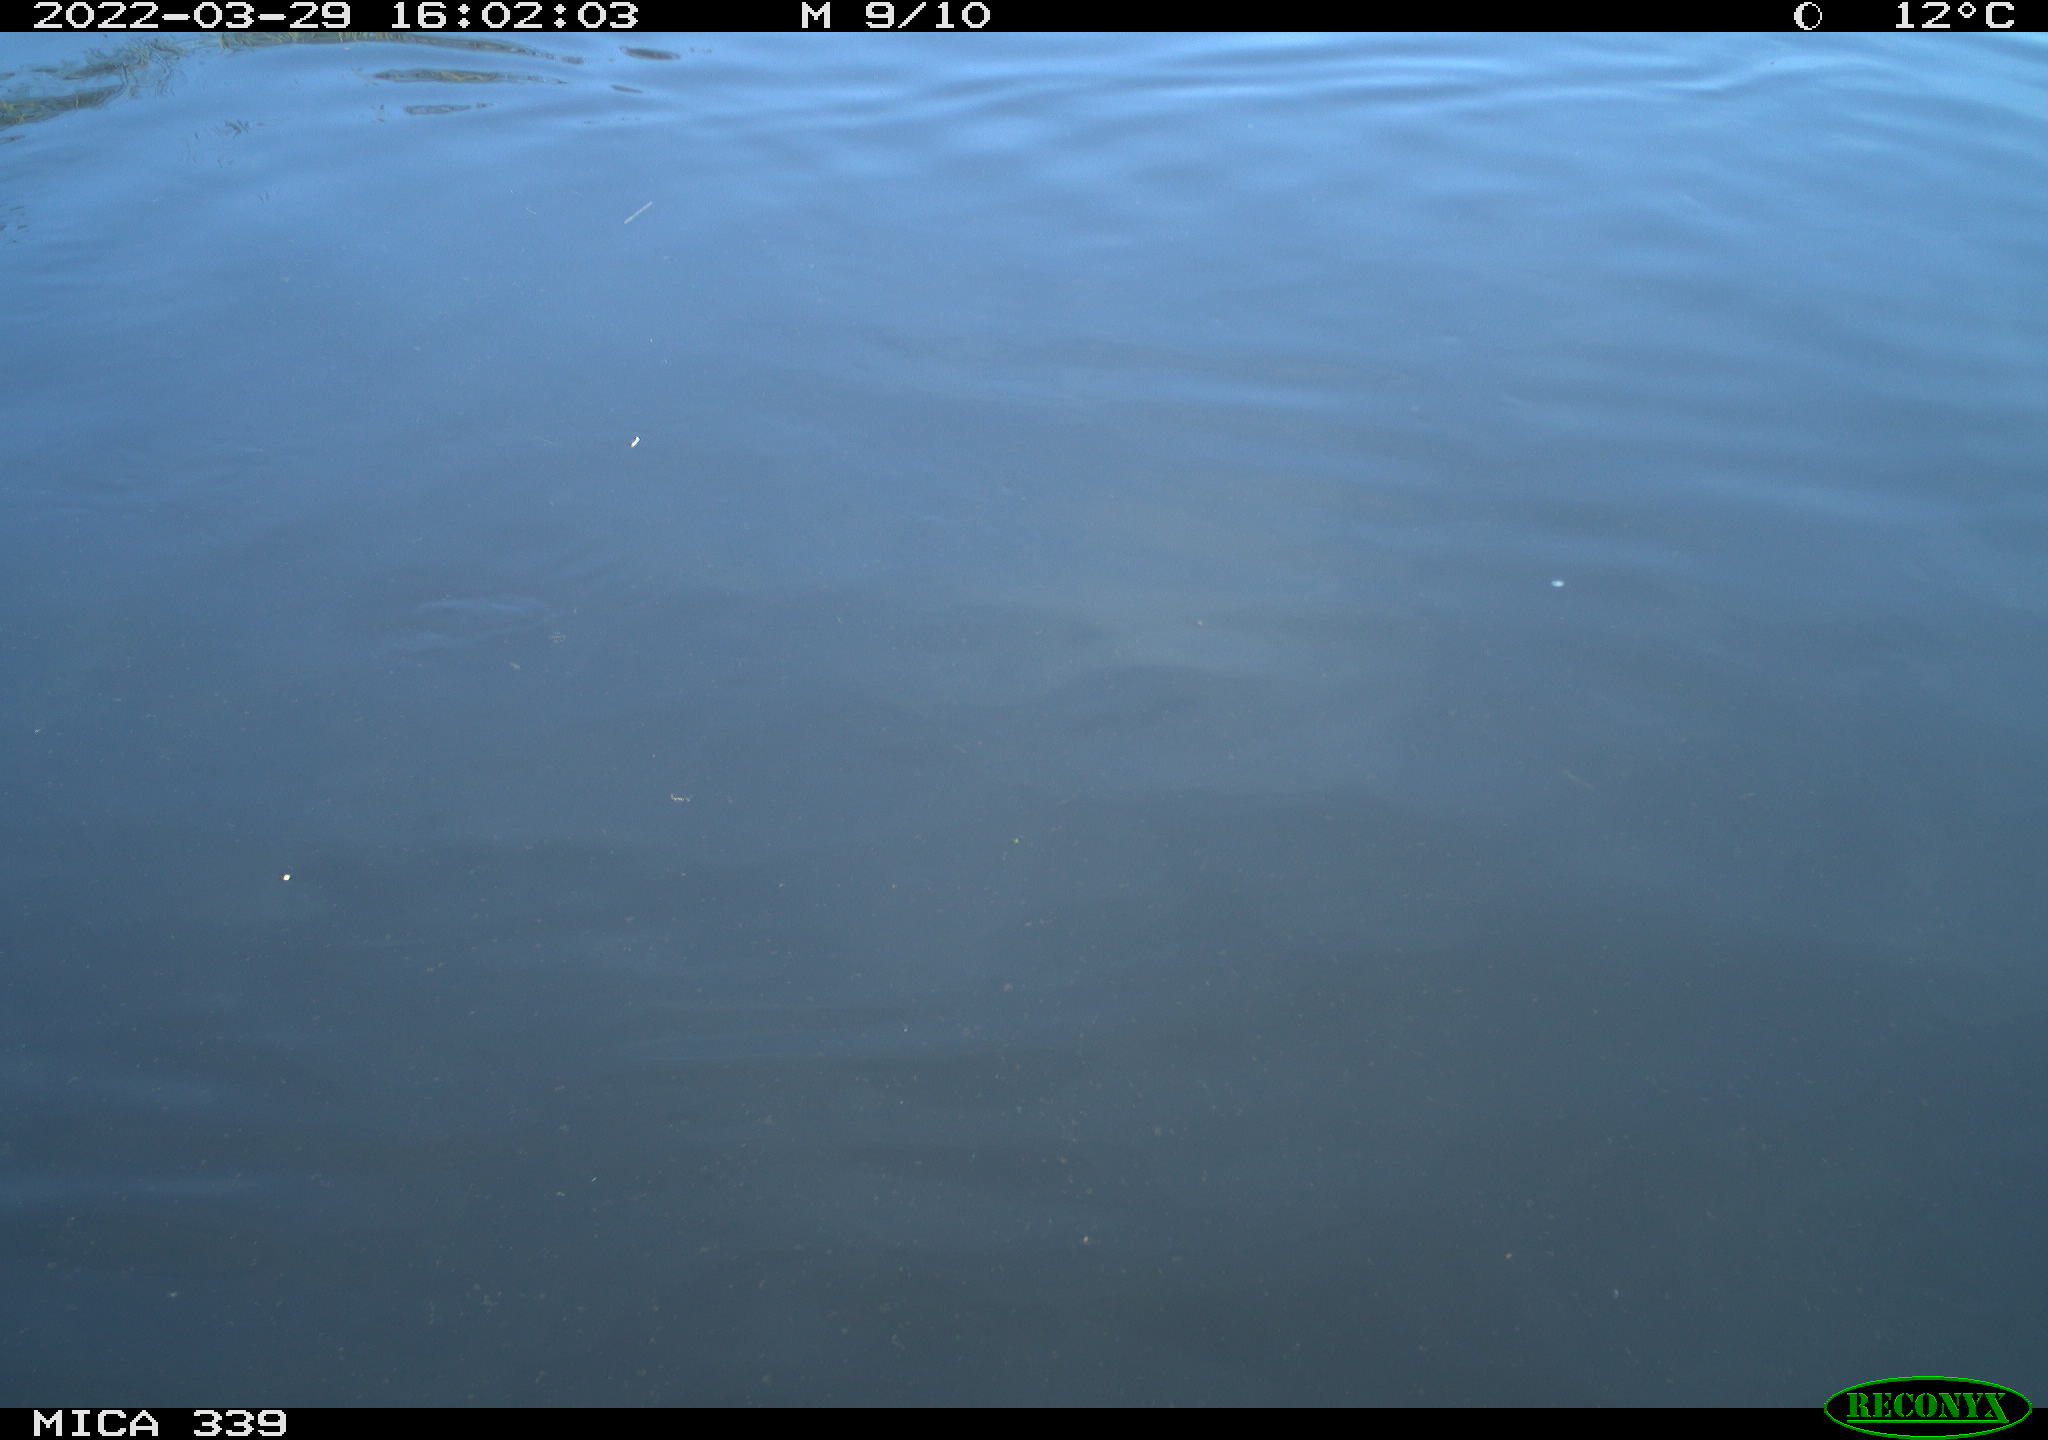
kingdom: Animalia
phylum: Chordata
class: Aves
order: Anseriformes
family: Anatidae
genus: Anas
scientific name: Anas platyrhynchos
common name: Mallard
